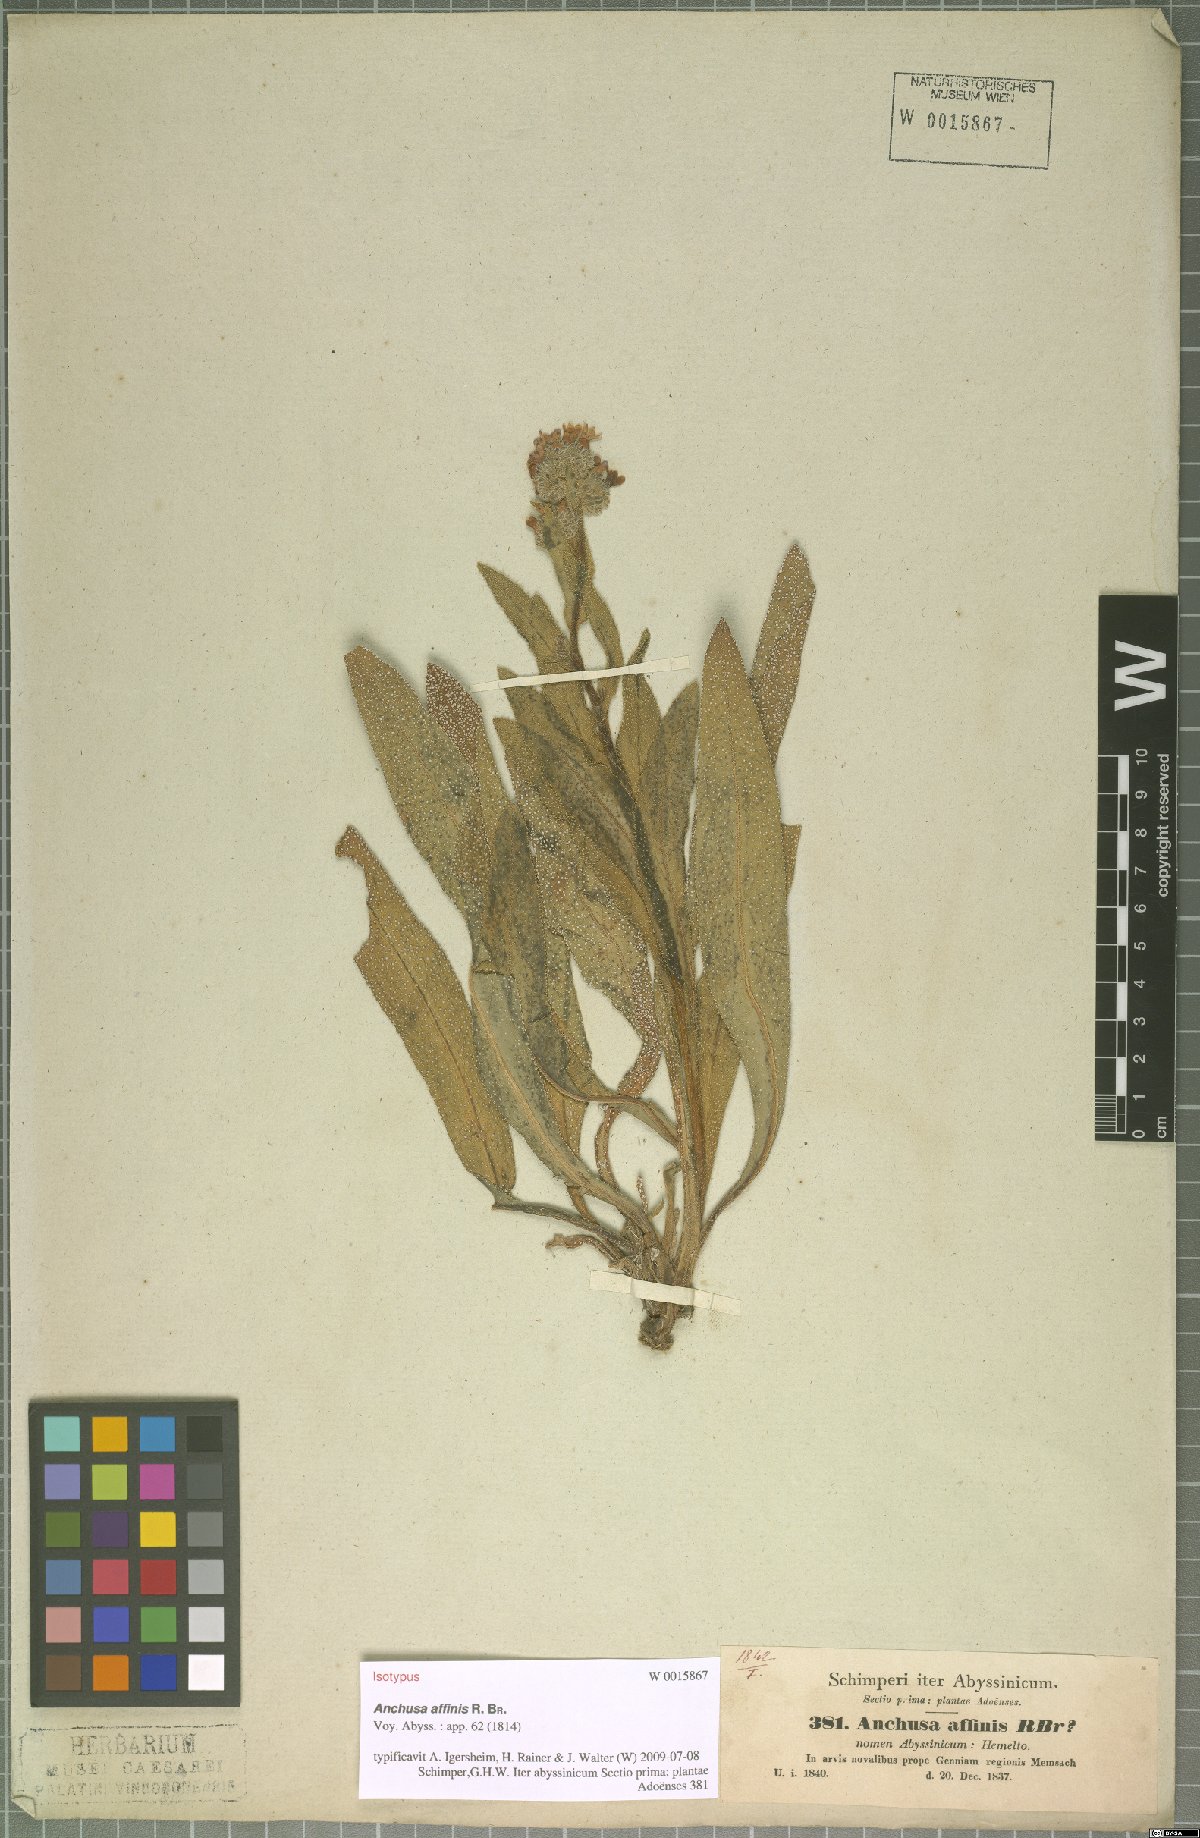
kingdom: Plantae
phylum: Tracheophyta
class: Magnoliopsida
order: Boraginales
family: Boraginaceae
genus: Anchusa
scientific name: Anchusa affinis
